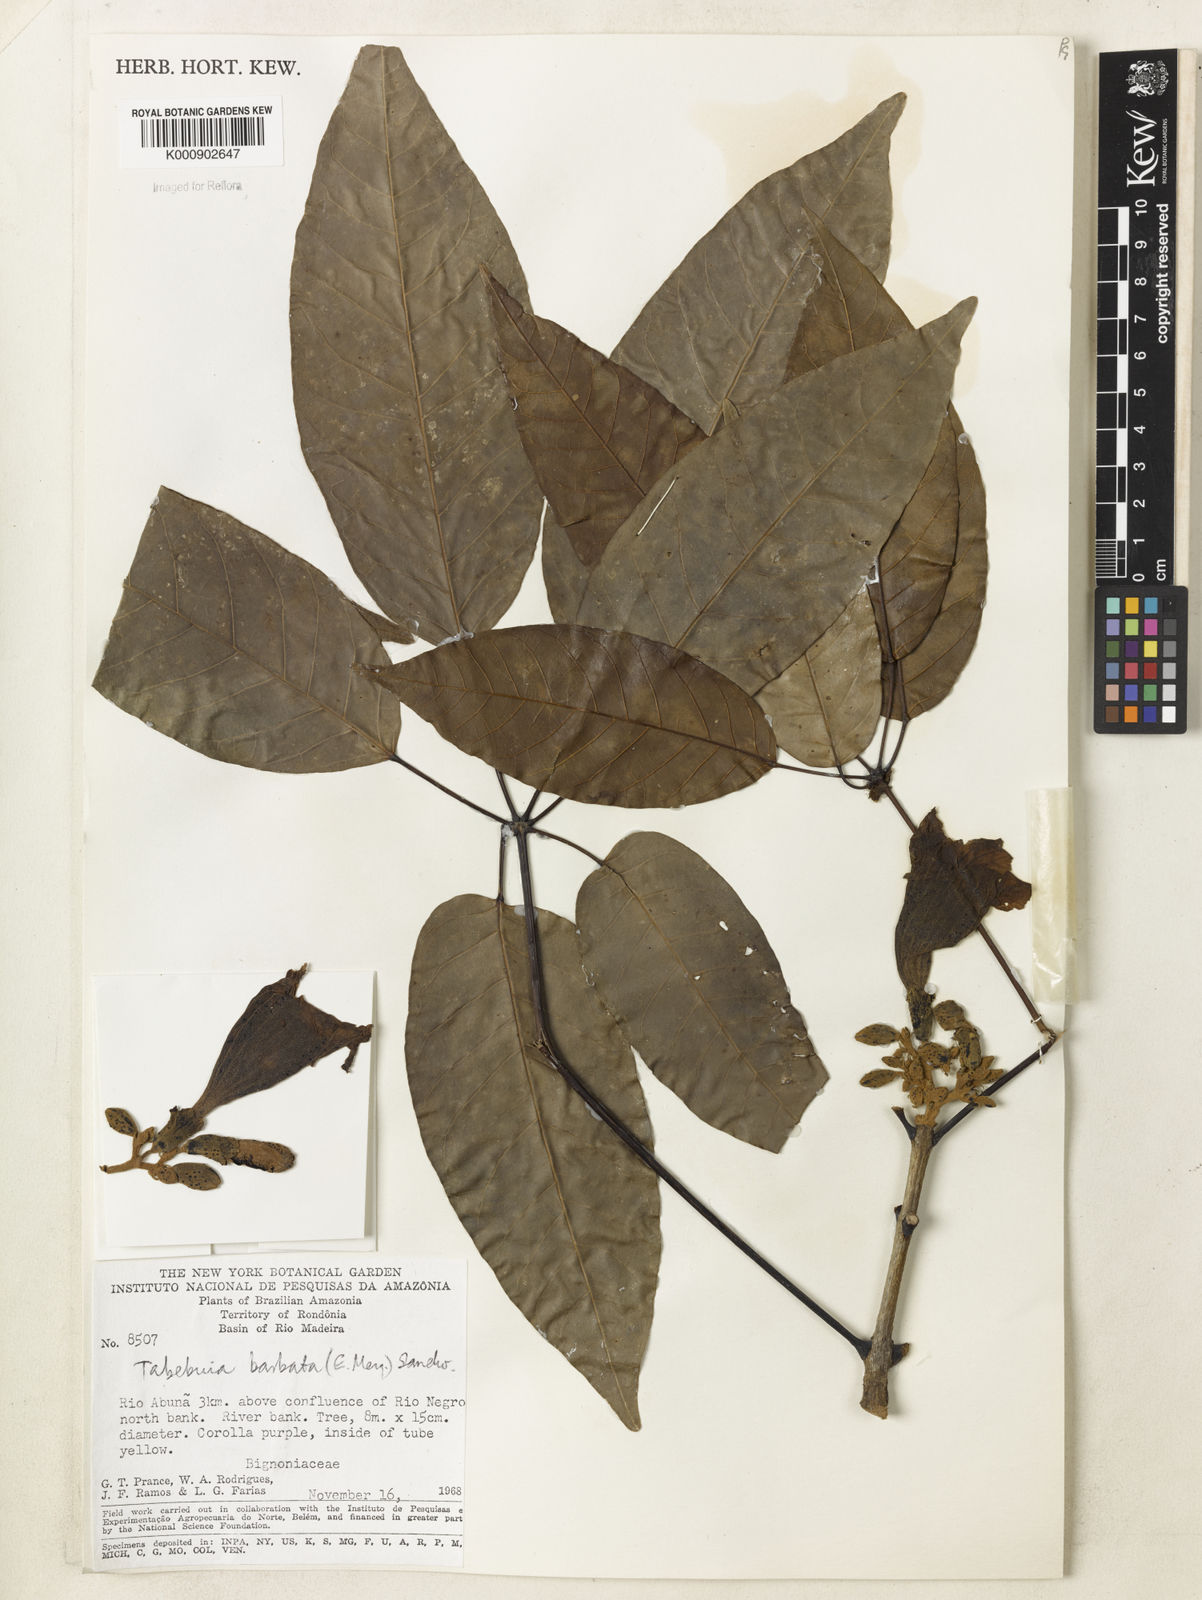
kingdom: Plantae
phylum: Tracheophyta
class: Magnoliopsida
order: Lamiales
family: Bignoniaceae
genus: Handroanthus
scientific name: Handroanthus barbatus
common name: Trumpet trees
